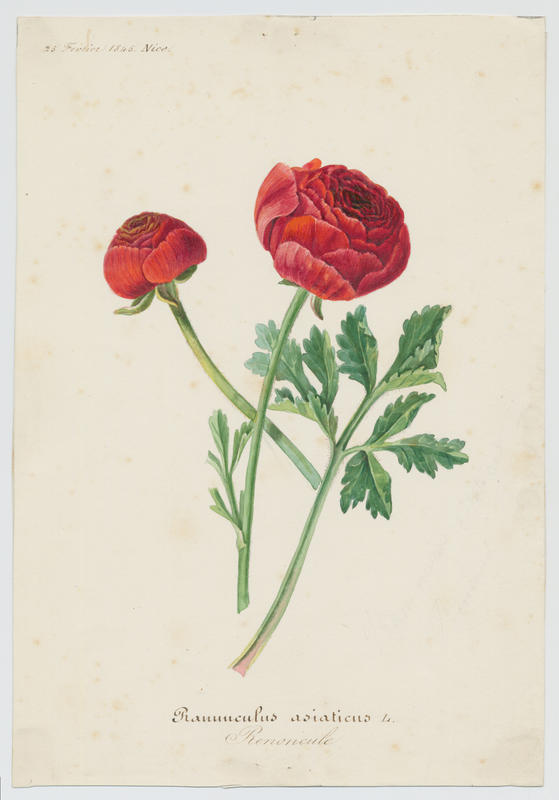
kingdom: Plantae
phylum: Tracheophyta
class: Magnoliopsida
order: Ranunculales
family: Ranunculaceae
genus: Ranunculus
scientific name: Ranunculus asiaticus
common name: Persian buttercup
